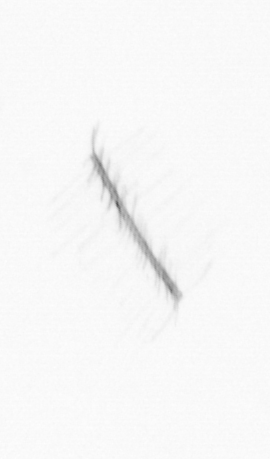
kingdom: Chromista
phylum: Ochrophyta
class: Bacillariophyceae
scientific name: Bacillariophyceae
